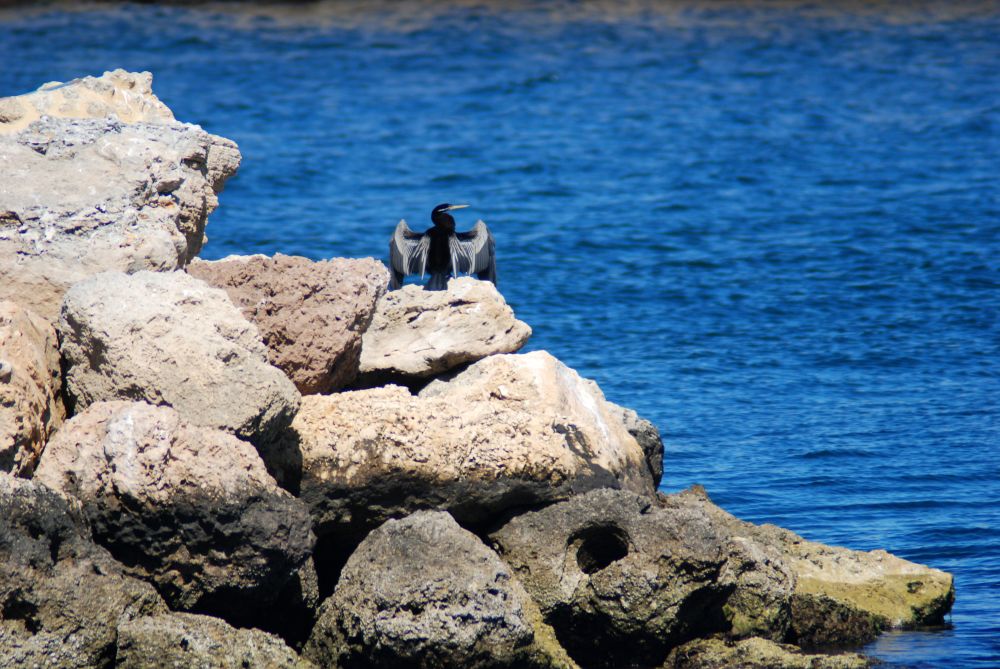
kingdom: Animalia
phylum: Chordata
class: Aves
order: Suliformes
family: Anhingidae
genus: Anhinga
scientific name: Anhinga novaehollandiae
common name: Australasian darter
